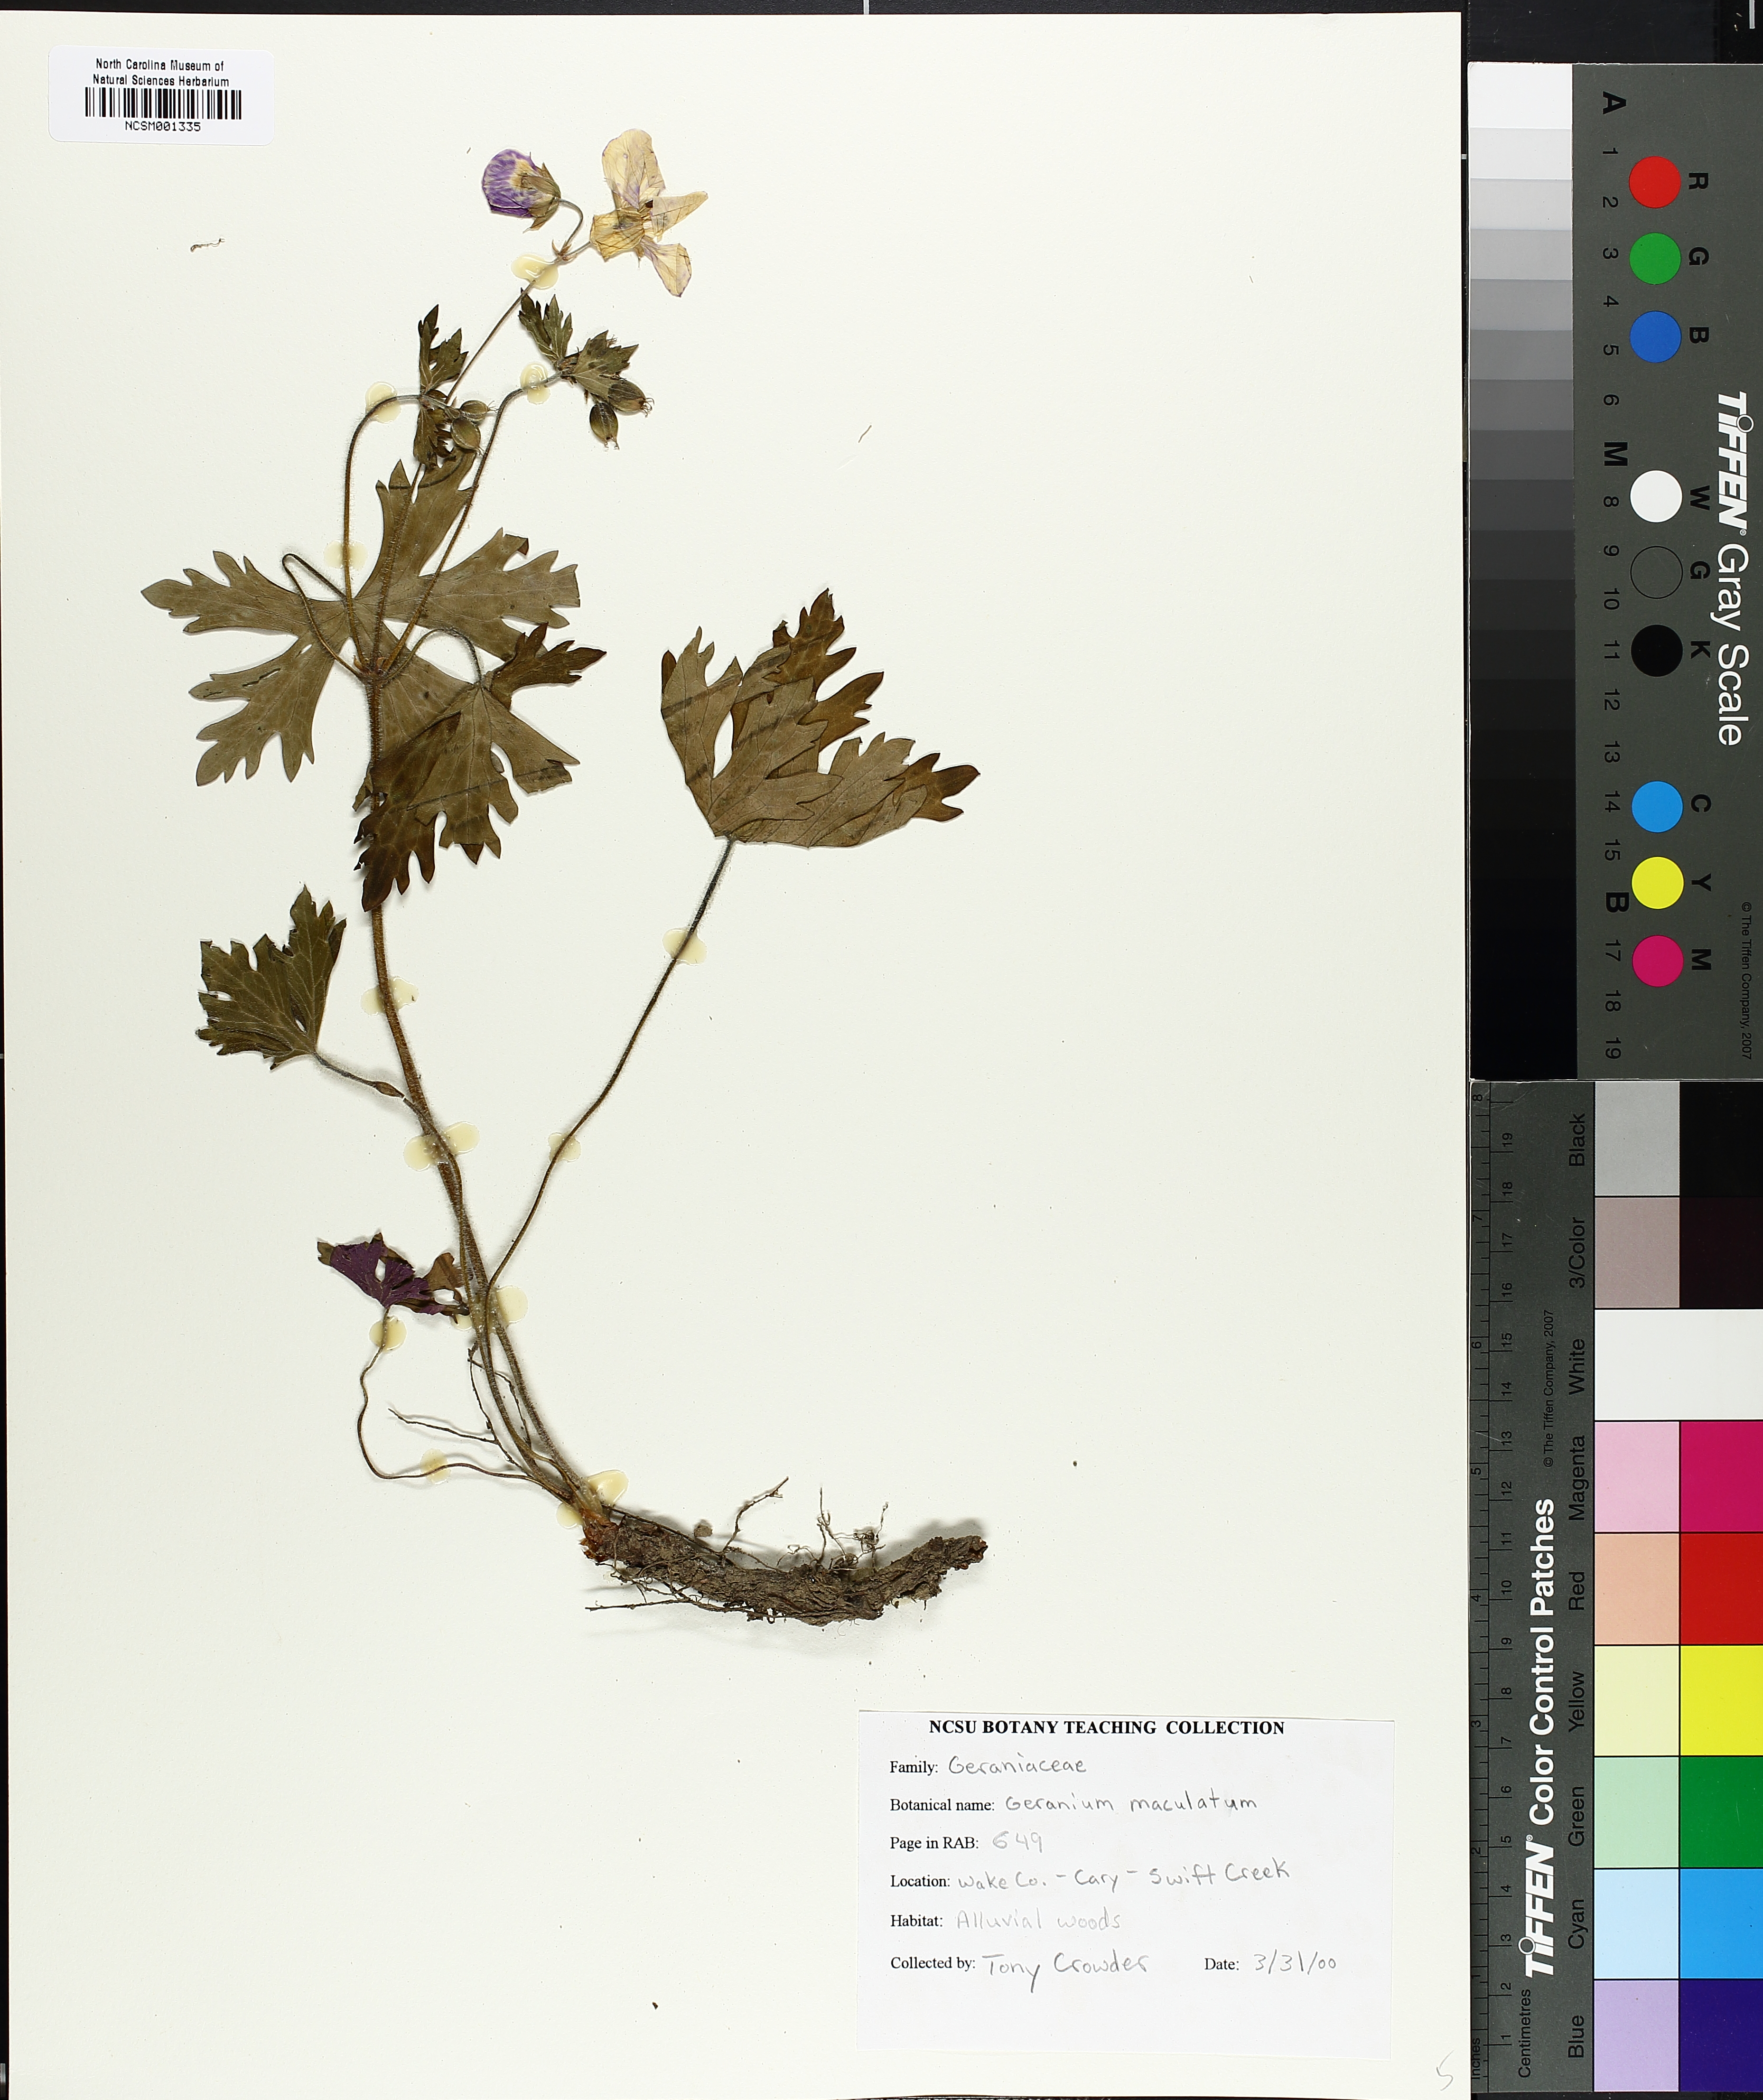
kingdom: Plantae
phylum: Tracheophyta
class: Magnoliopsida
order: Geraniales
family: Geraniaceae
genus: Geranium
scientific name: Geranium maculatum
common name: Spotted geranium
